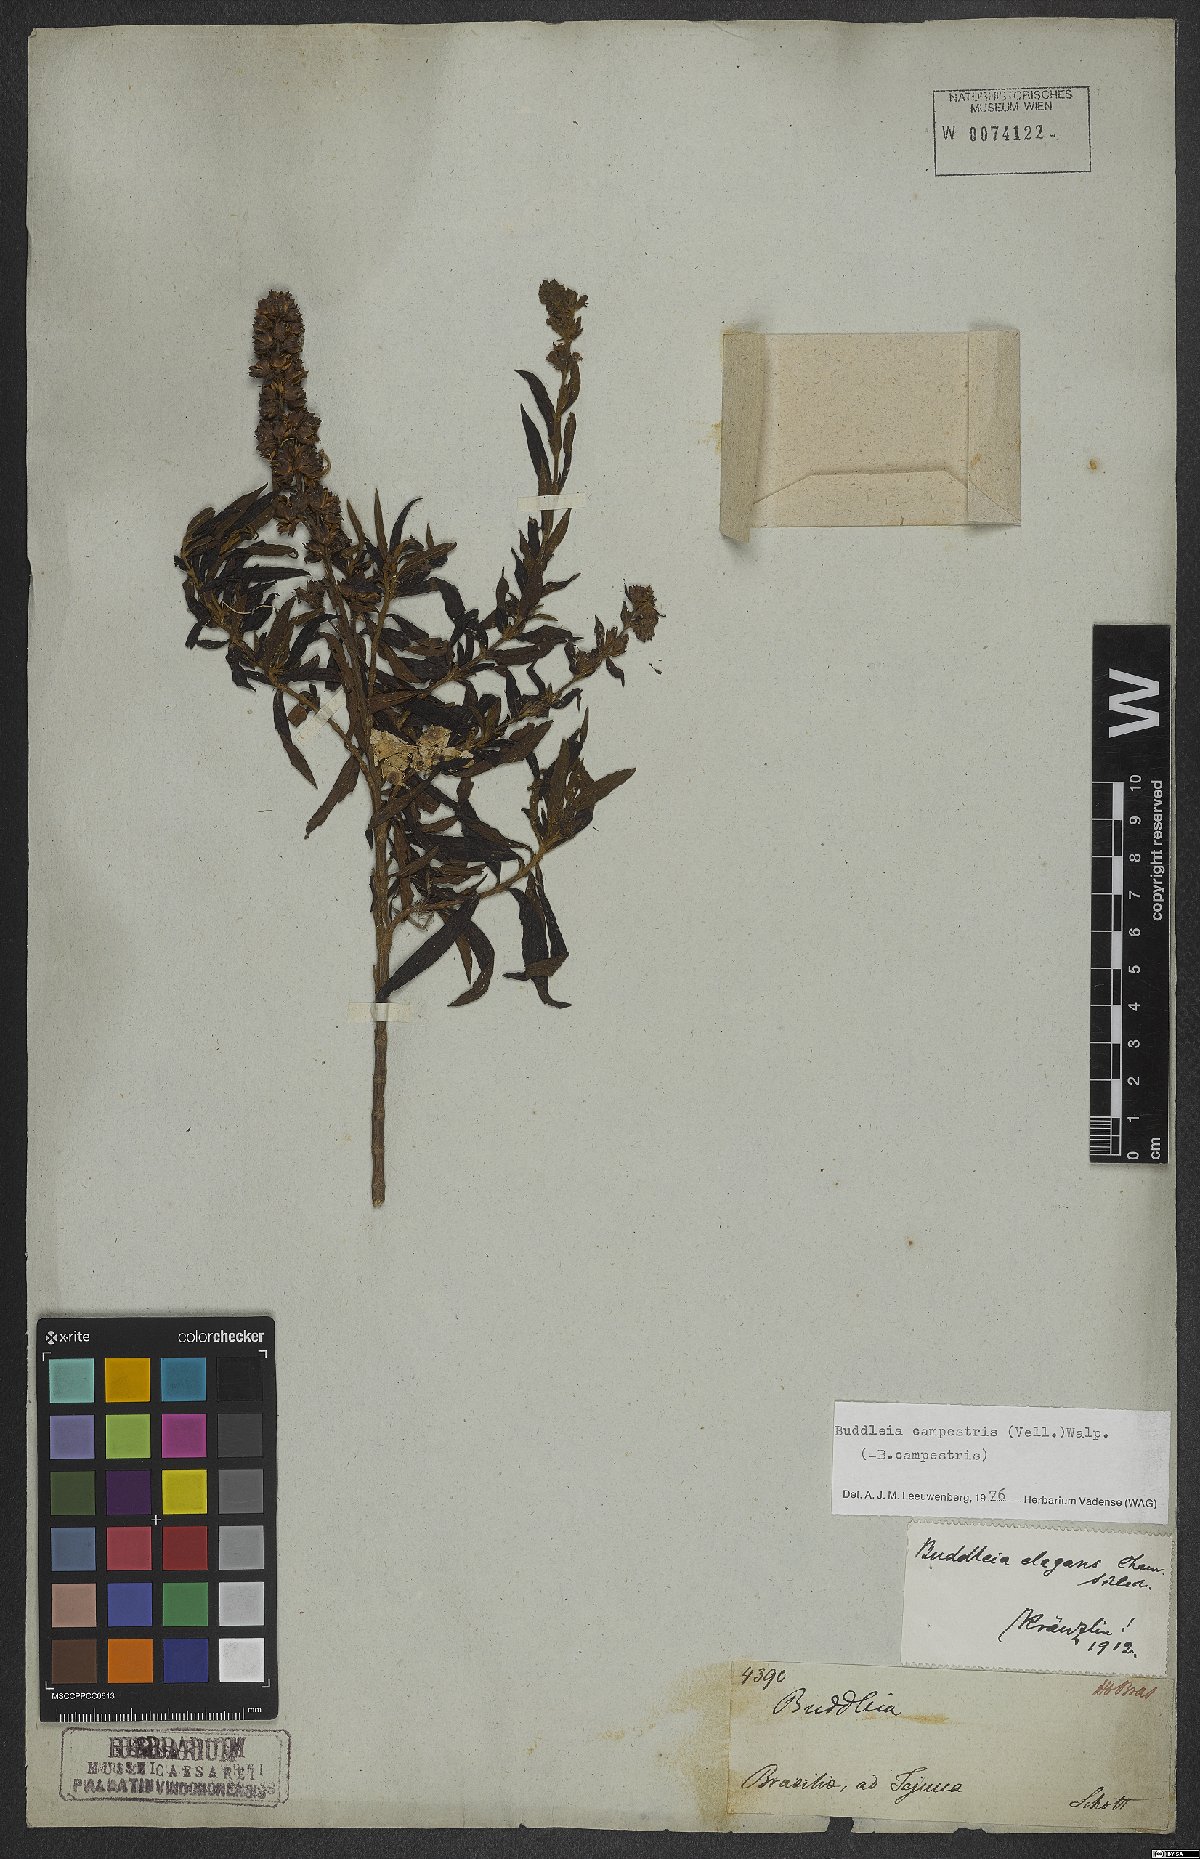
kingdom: Plantae
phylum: Tracheophyta
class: Magnoliopsida
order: Lamiales
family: Scrophulariaceae
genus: Buddleja
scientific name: Buddleja elegans
